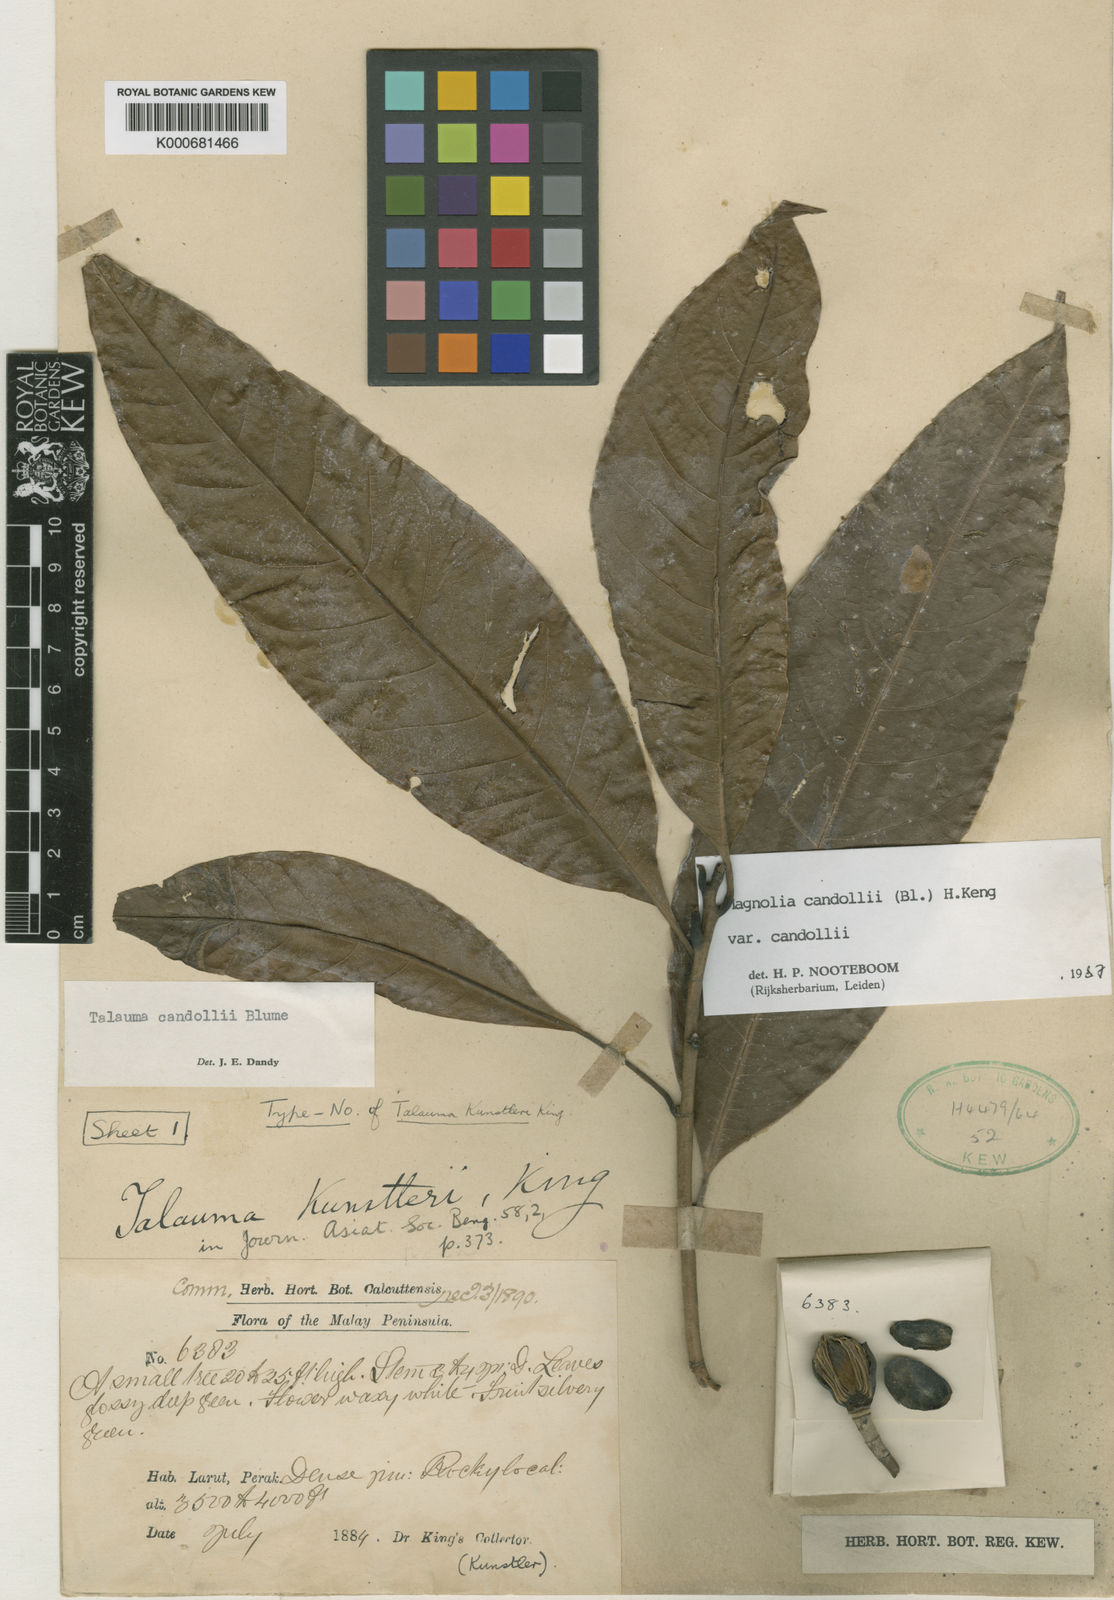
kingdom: Plantae
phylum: Tracheophyta
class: Magnoliopsida
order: Magnoliales
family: Magnoliaceae
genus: Magnolia
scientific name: Magnolia liliifera
